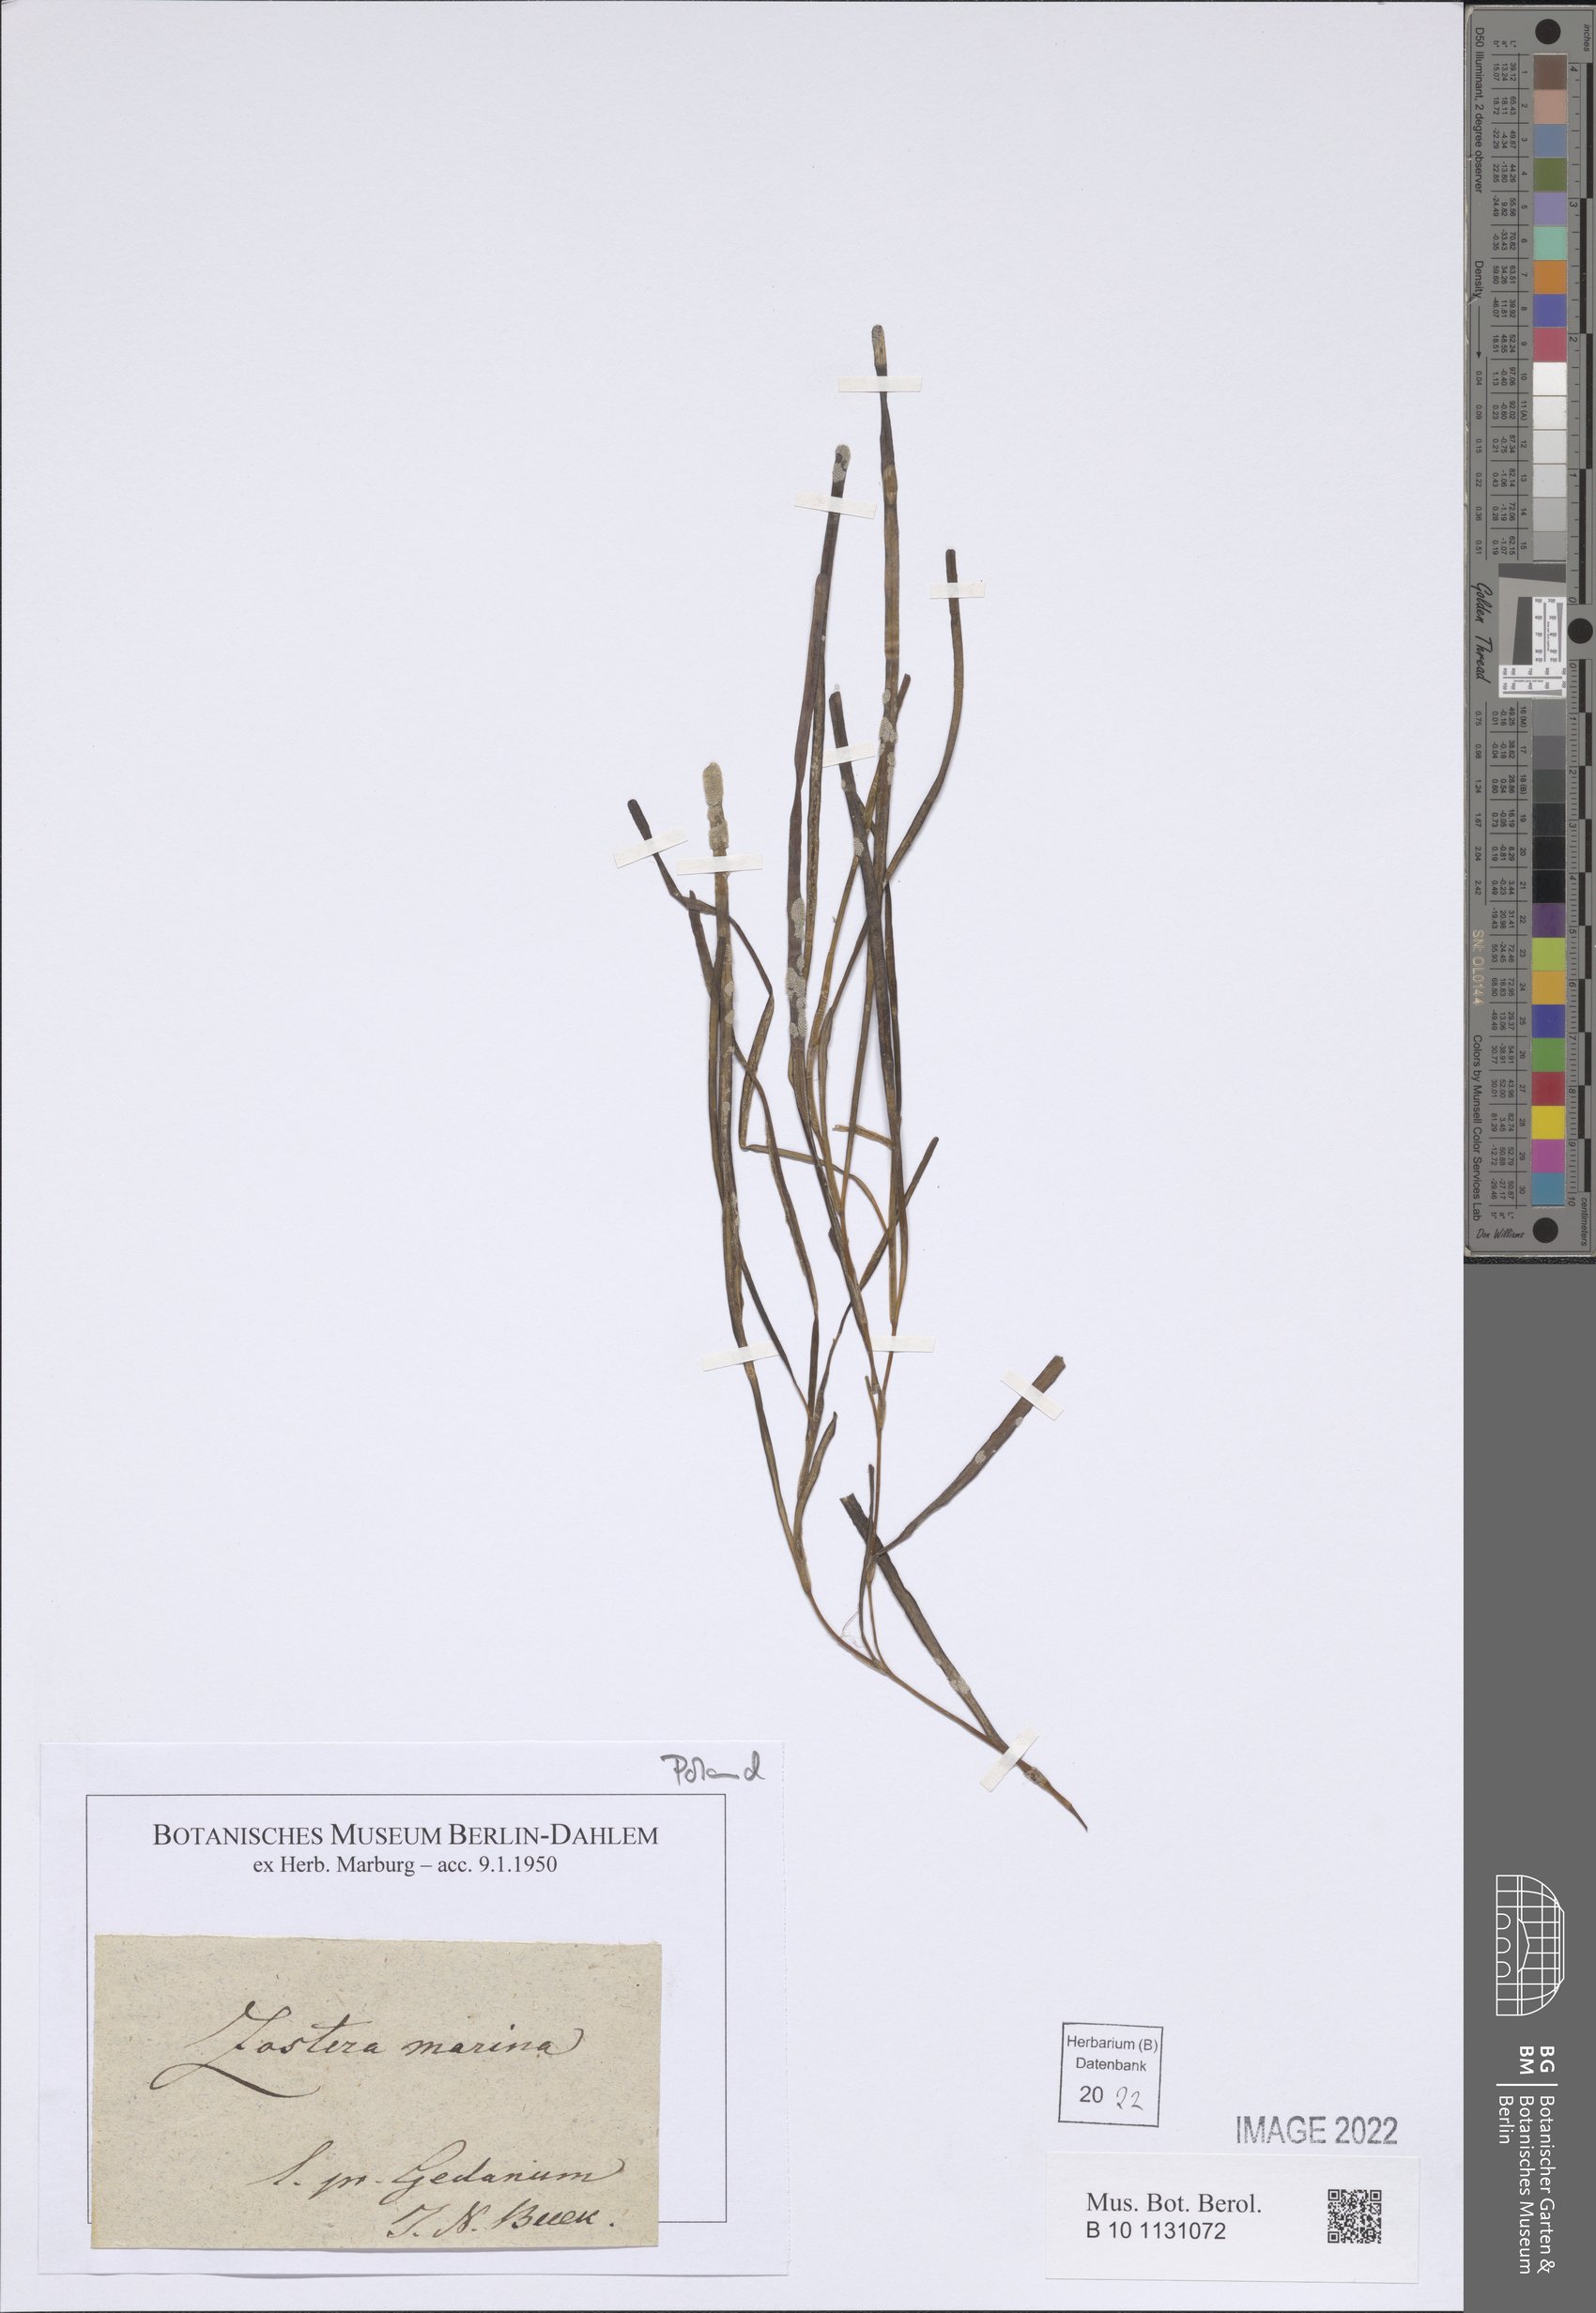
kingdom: Plantae
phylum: Tracheophyta
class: Liliopsida
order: Alismatales
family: Zosteraceae
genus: Zostera
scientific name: Zostera marina
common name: Eelgrass
